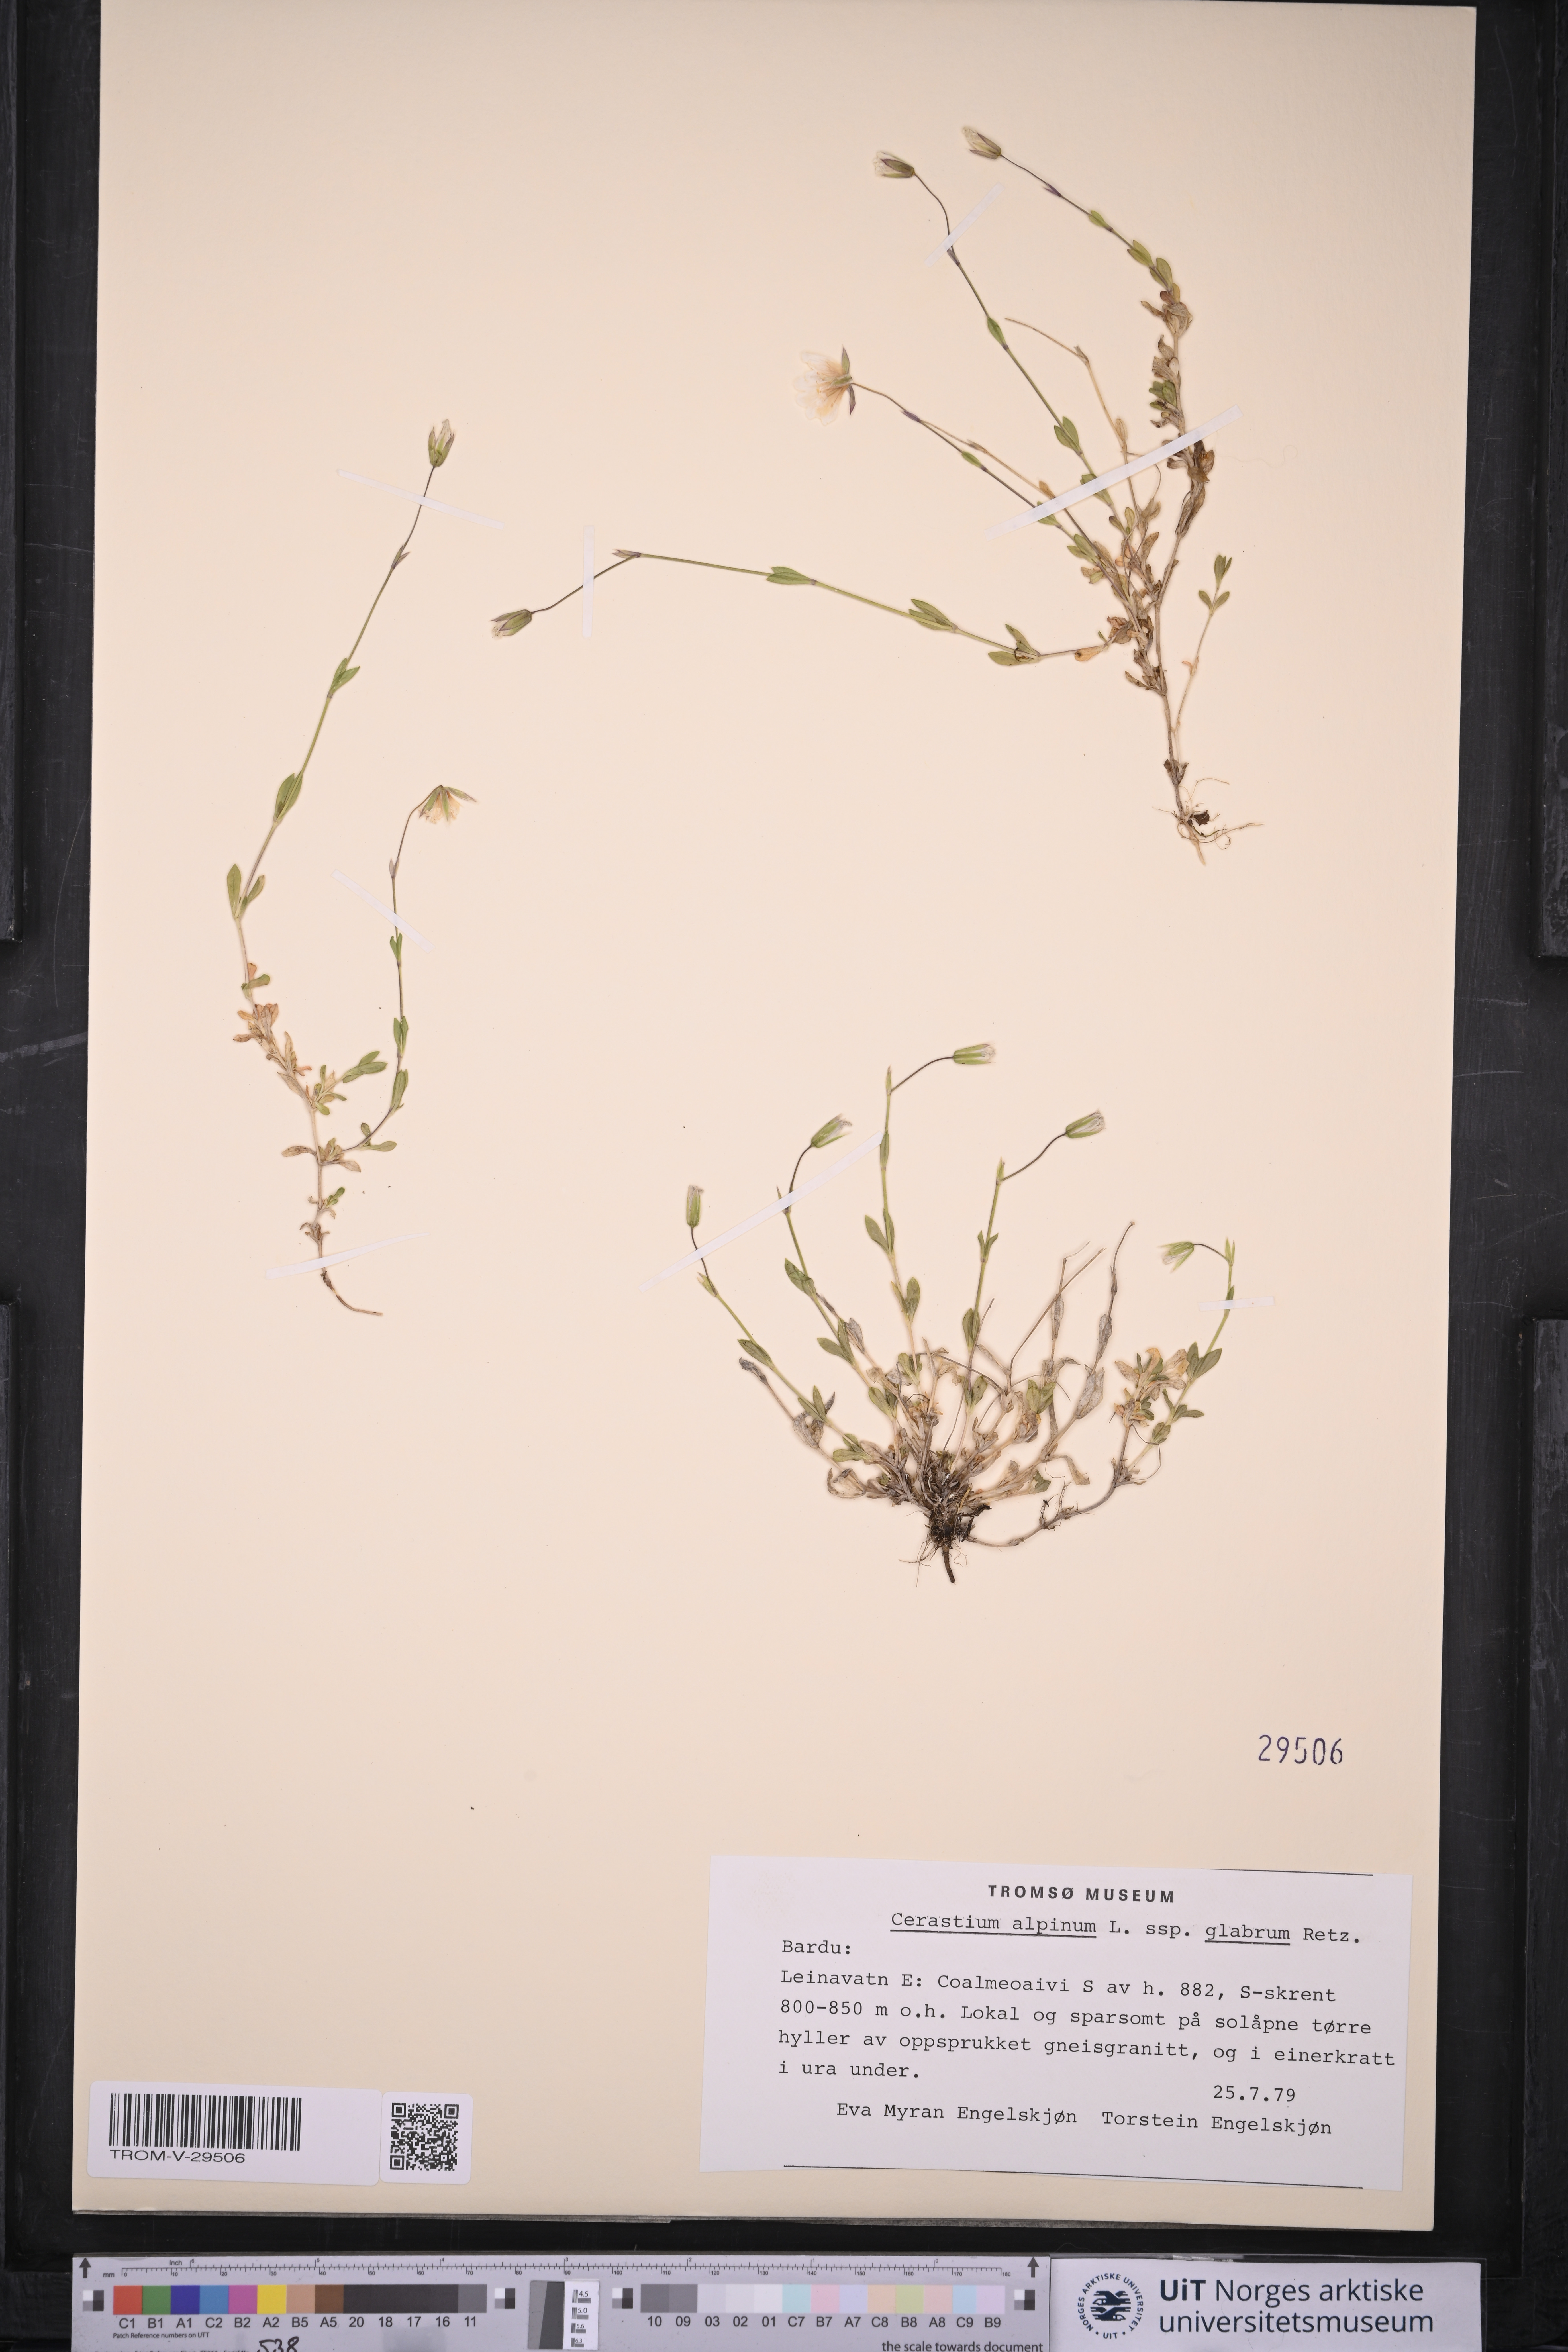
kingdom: Plantae
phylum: Tracheophyta
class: Magnoliopsida
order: Caryophyllales
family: Caryophyllaceae
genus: Cerastium
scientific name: Cerastium alpinum
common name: Alpine mouse-ear
